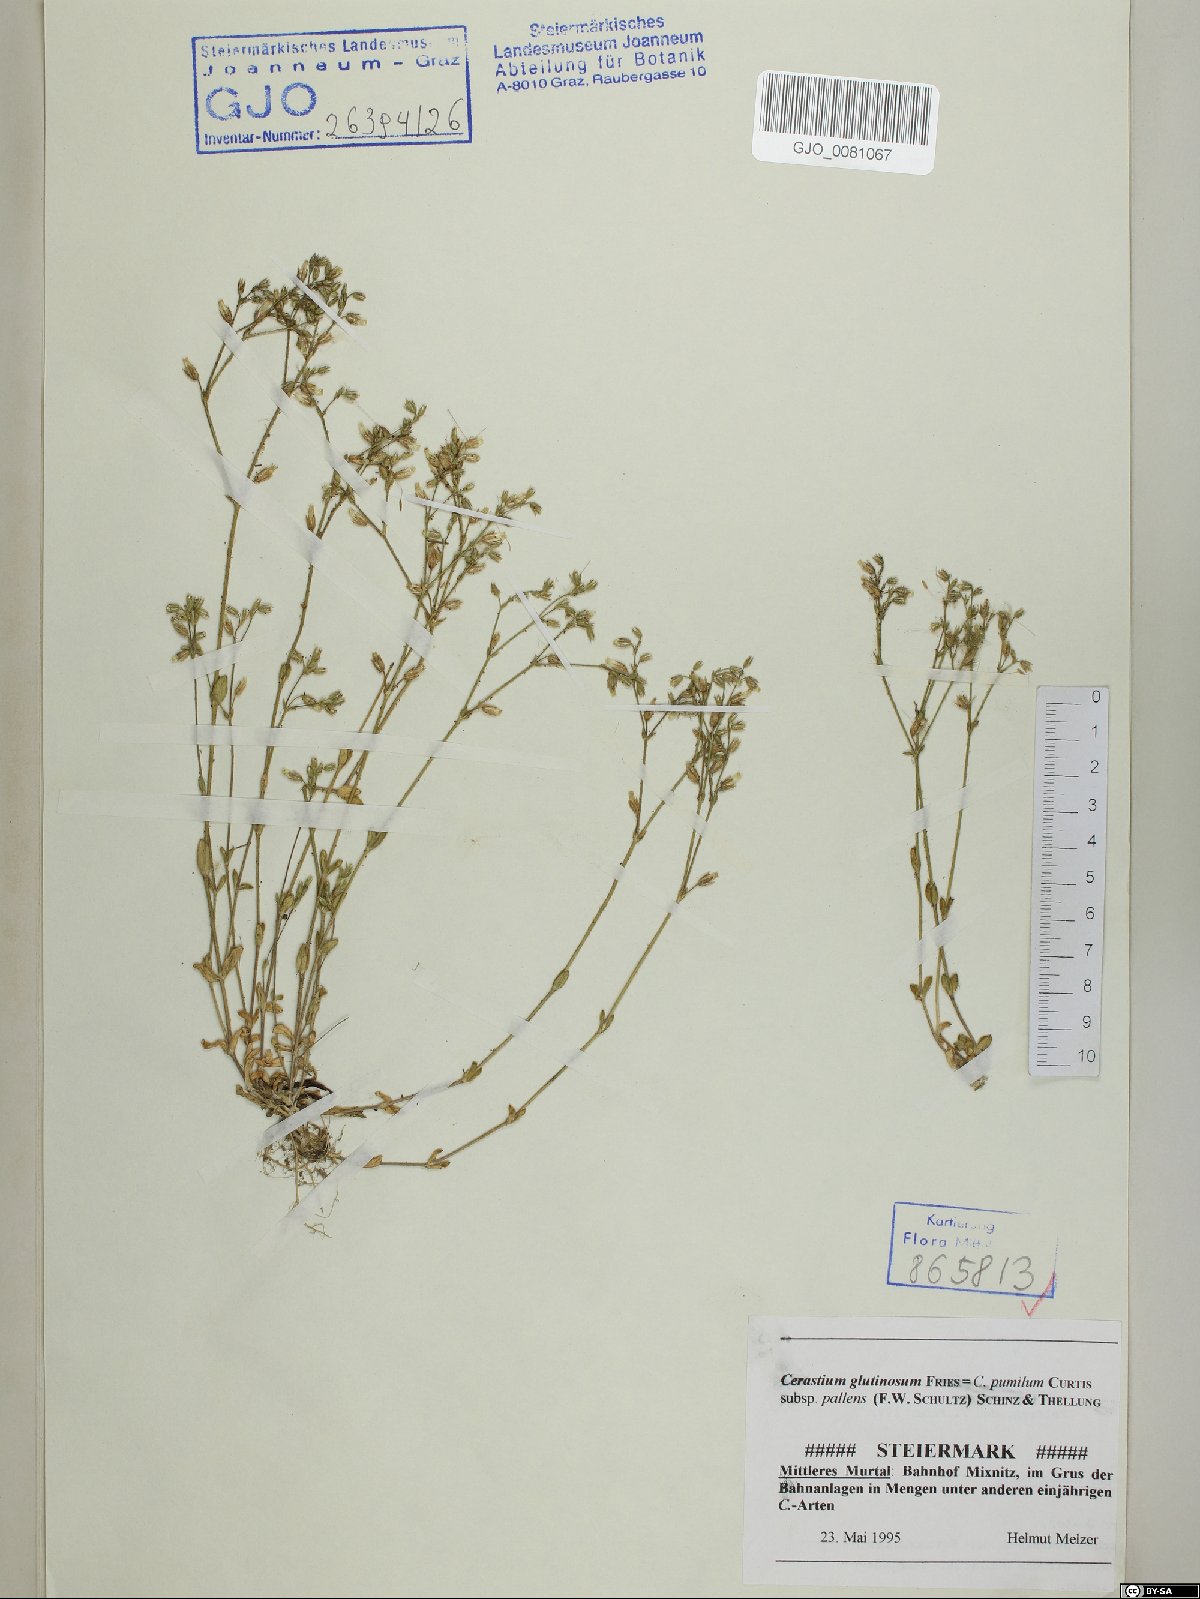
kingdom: Plantae
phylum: Tracheophyta
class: Magnoliopsida
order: Caryophyllales
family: Caryophyllaceae
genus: Cerastium
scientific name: Cerastium glutinosum
